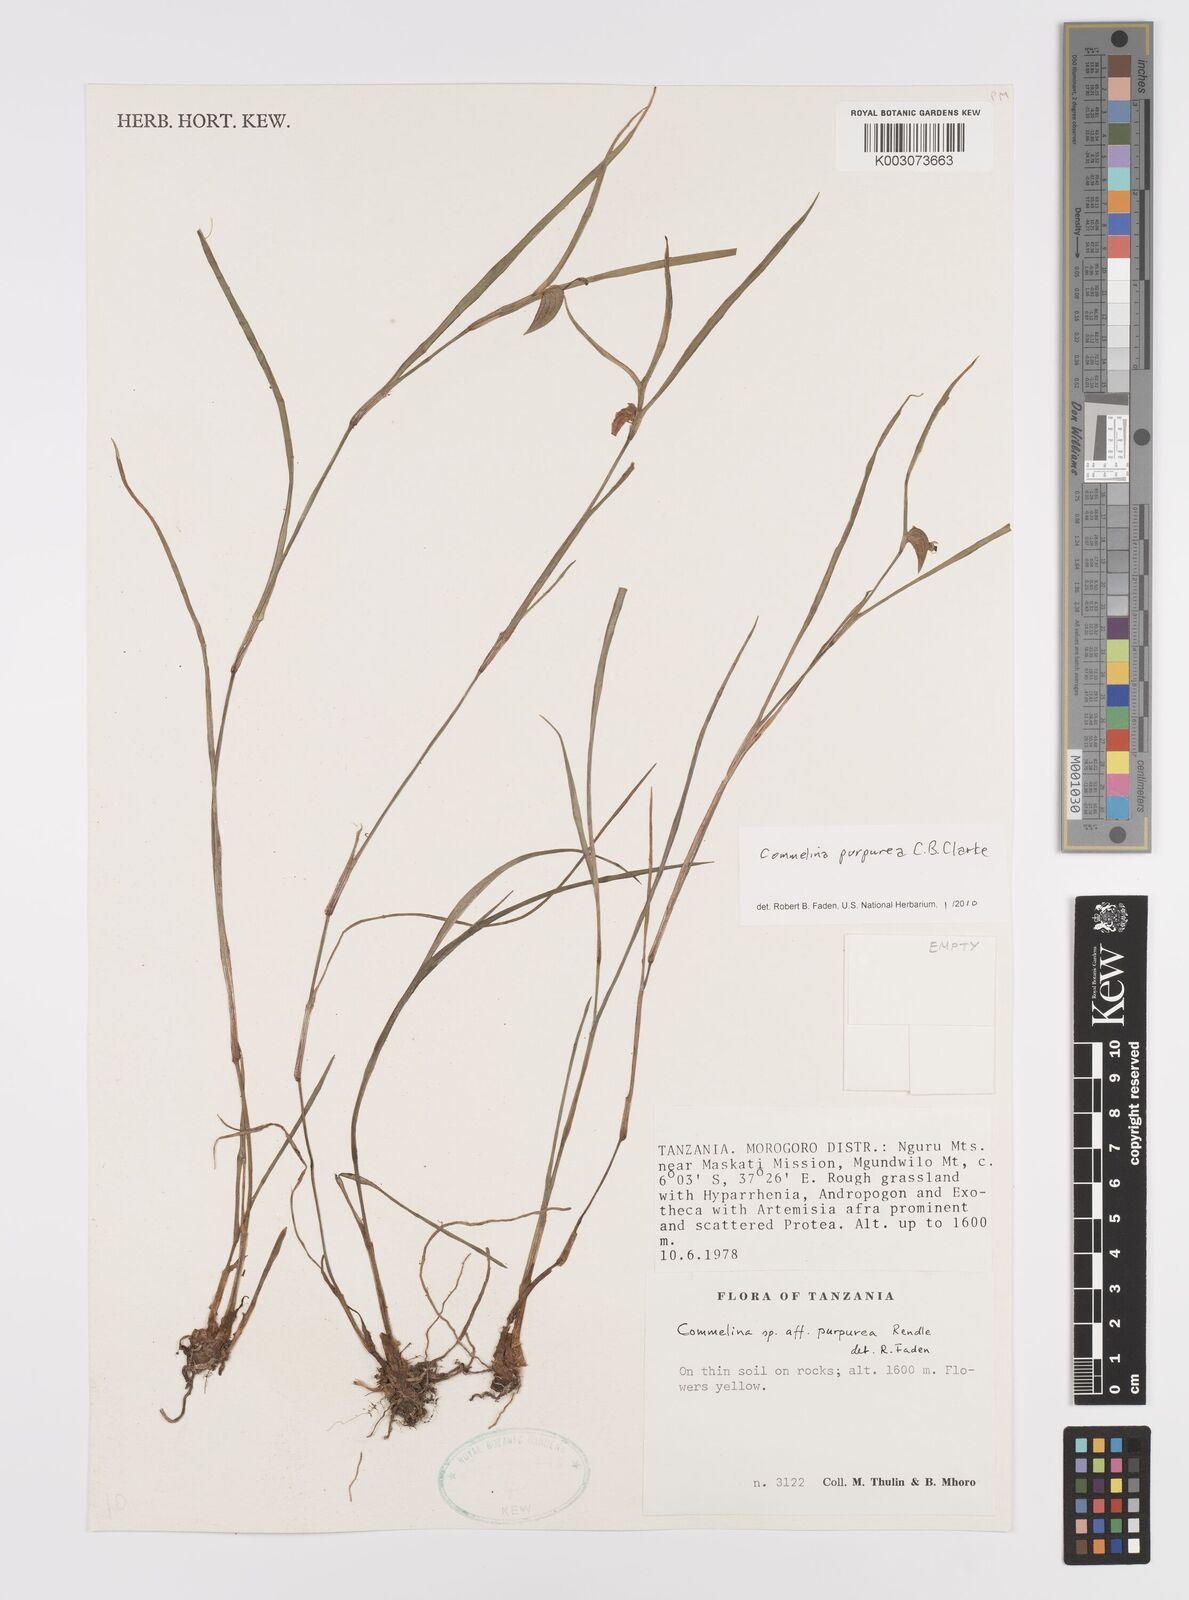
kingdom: Plantae
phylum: Tracheophyta
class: Liliopsida
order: Commelinales
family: Commelinaceae
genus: Commelina
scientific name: Commelina purpurea
